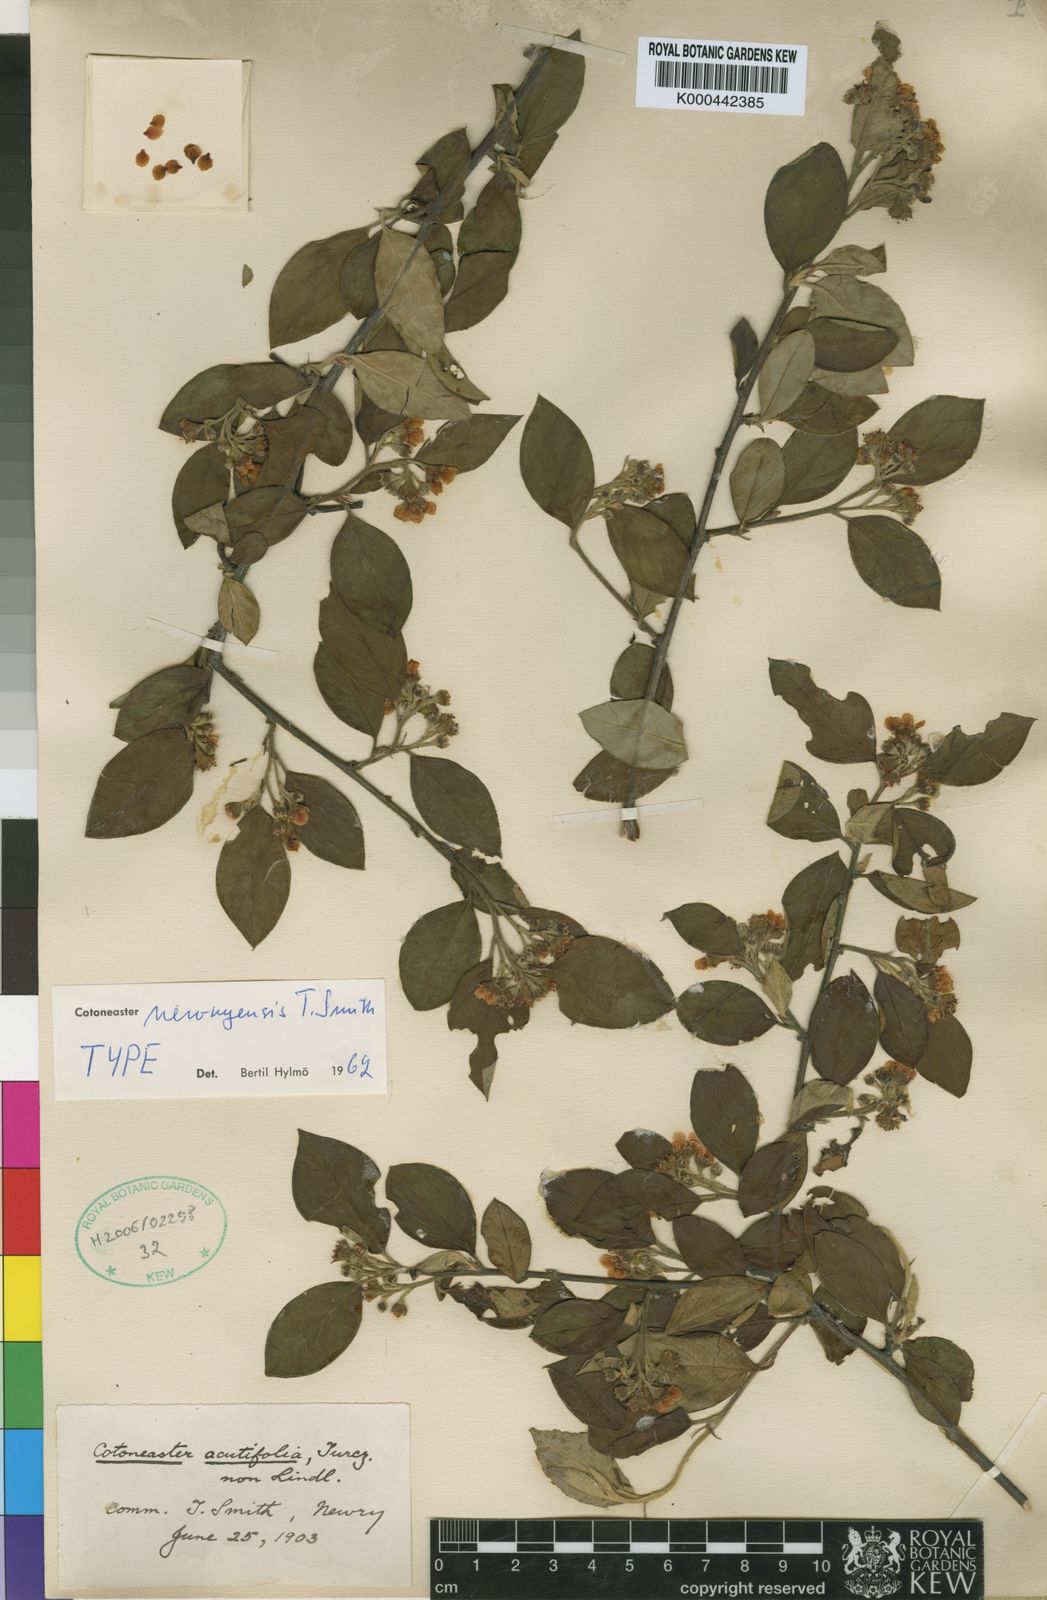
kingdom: Plantae
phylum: Tracheophyta
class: Magnoliopsida
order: Rosales
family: Rosaceae
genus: Cotoneaster
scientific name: Cotoneaster acutifolius
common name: Peking cotoneaster
